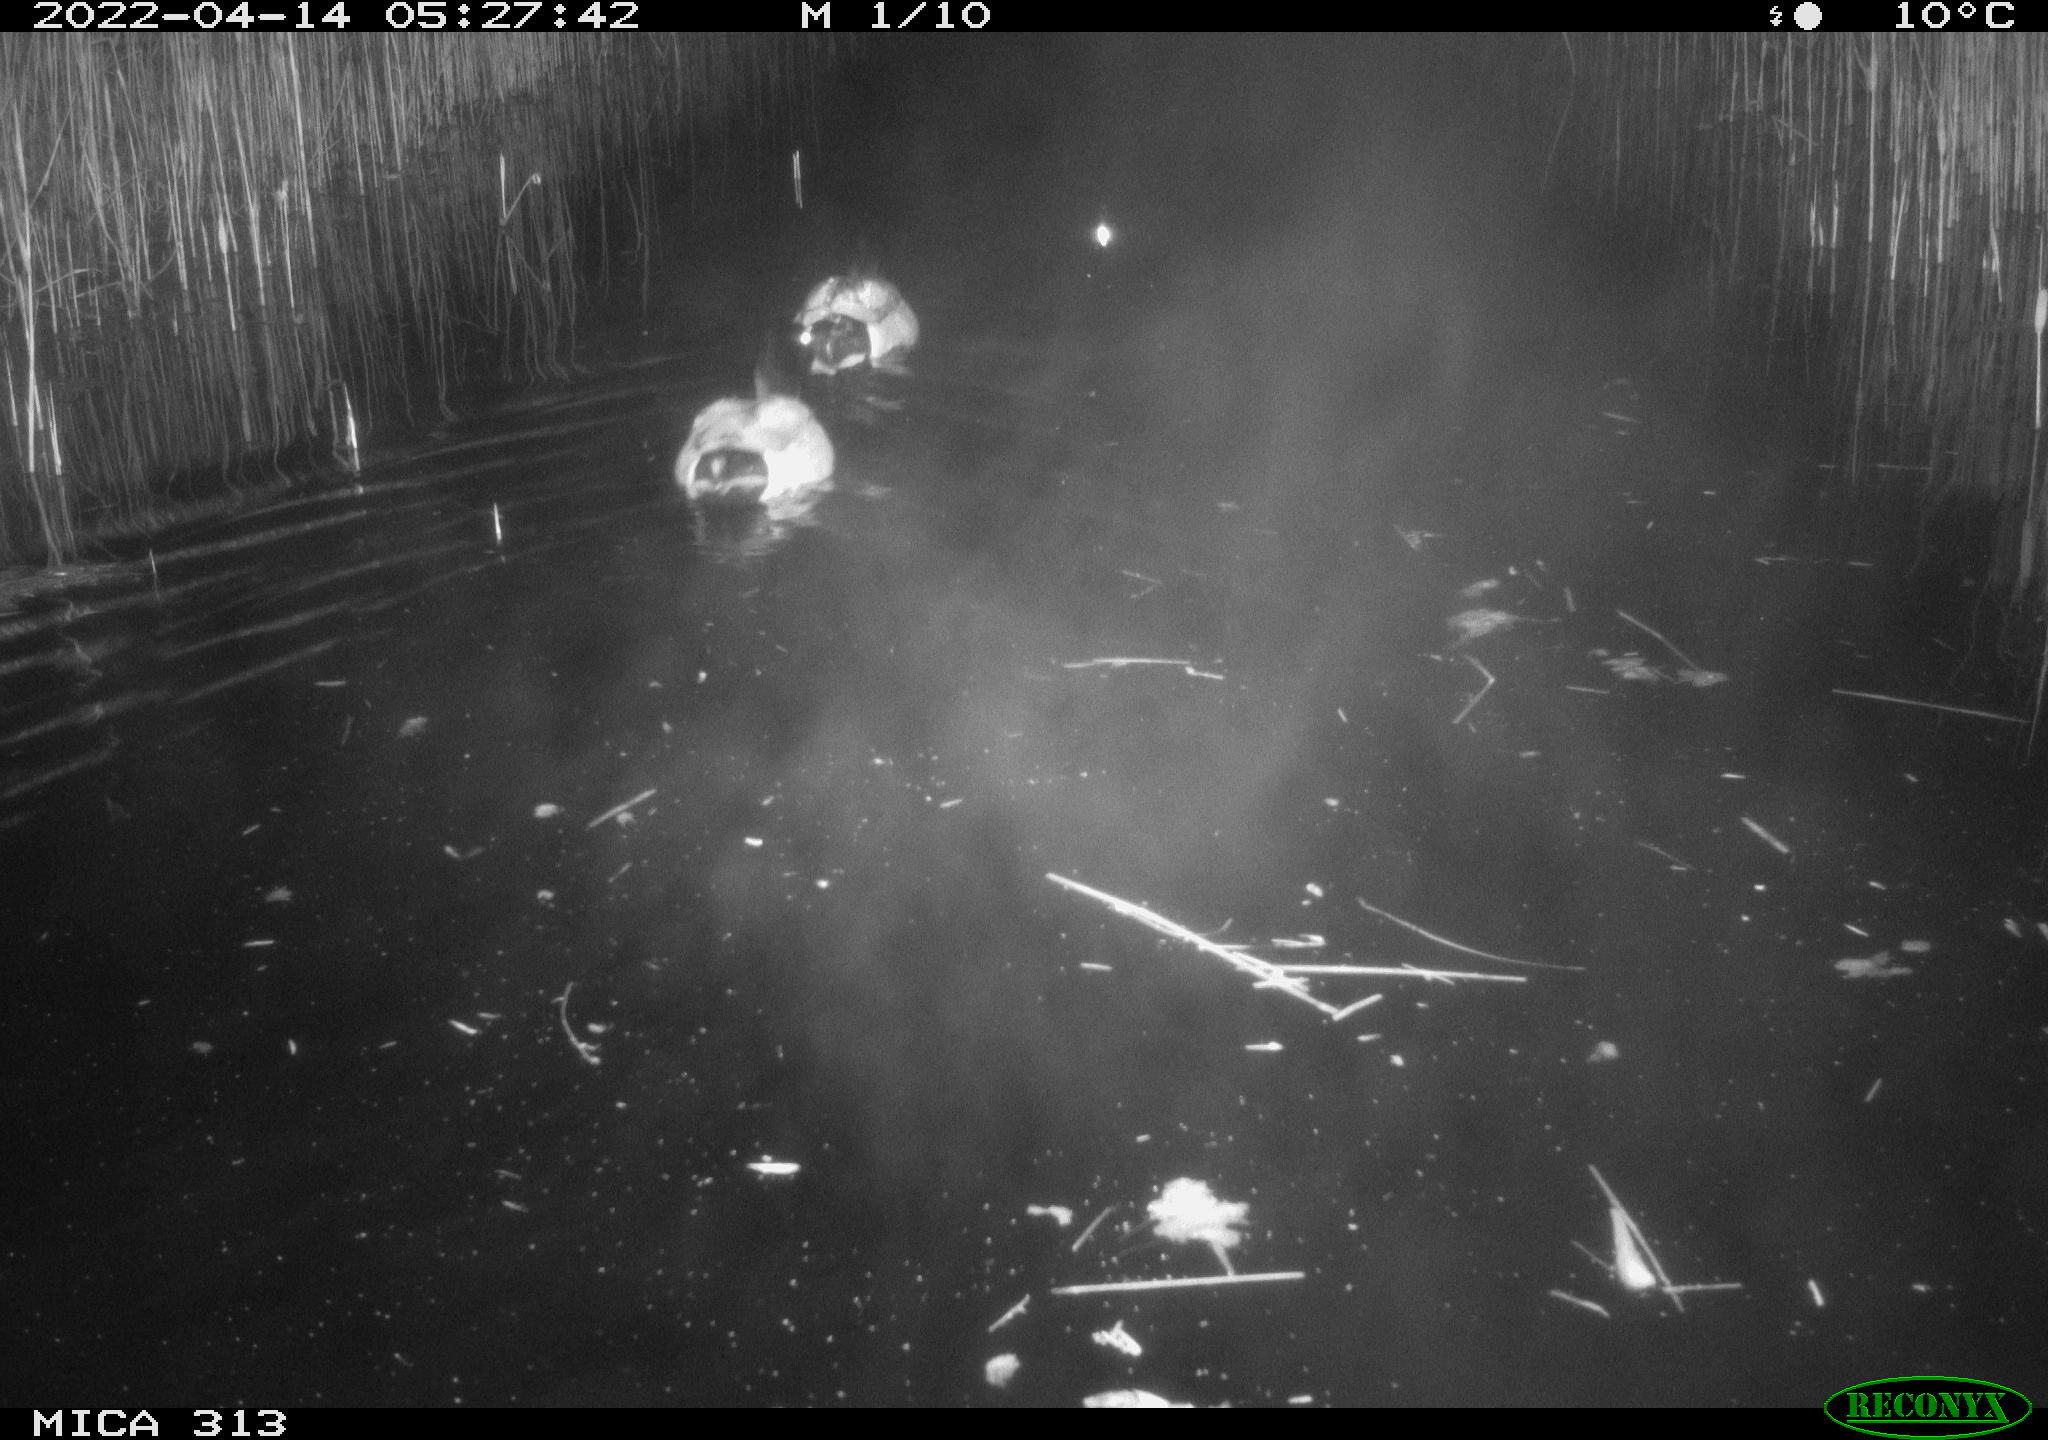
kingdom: Animalia
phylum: Chordata
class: Aves
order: Anseriformes
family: Anatidae
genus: Anas
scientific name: Anas platyrhynchos
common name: Mallard
